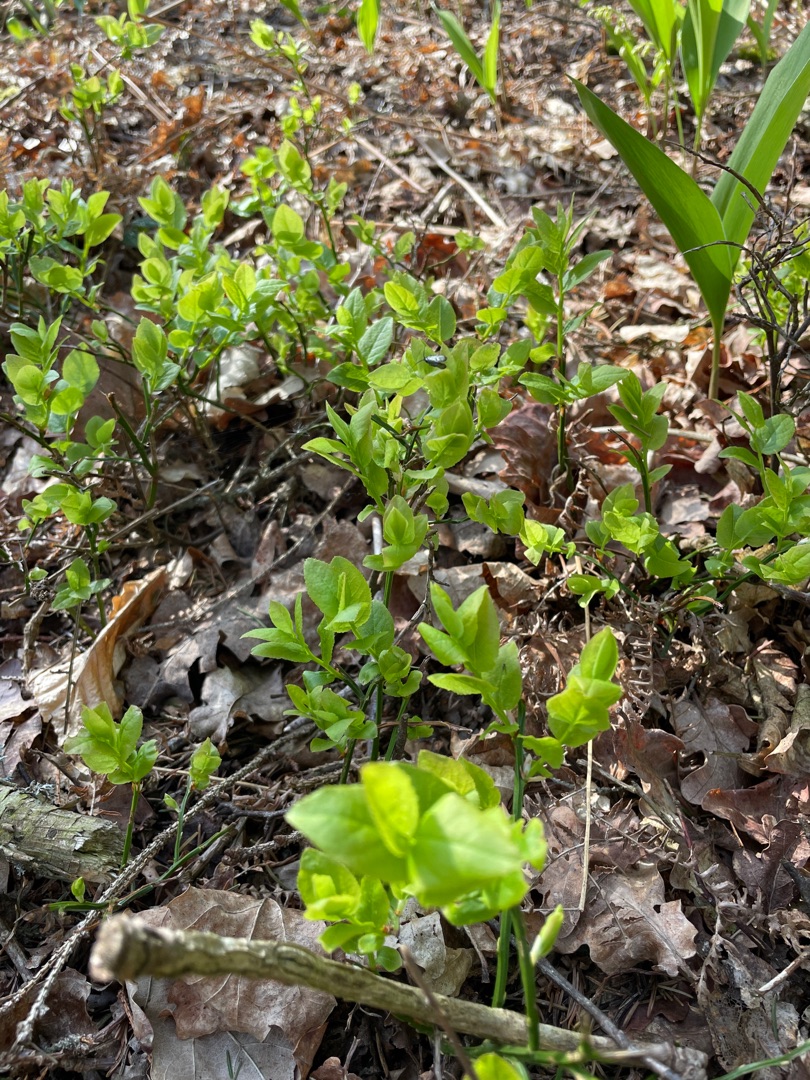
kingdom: Plantae
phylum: Tracheophyta
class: Magnoliopsida
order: Ericales
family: Ericaceae
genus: Vaccinium
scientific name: Vaccinium myrtillus
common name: Blåbær
